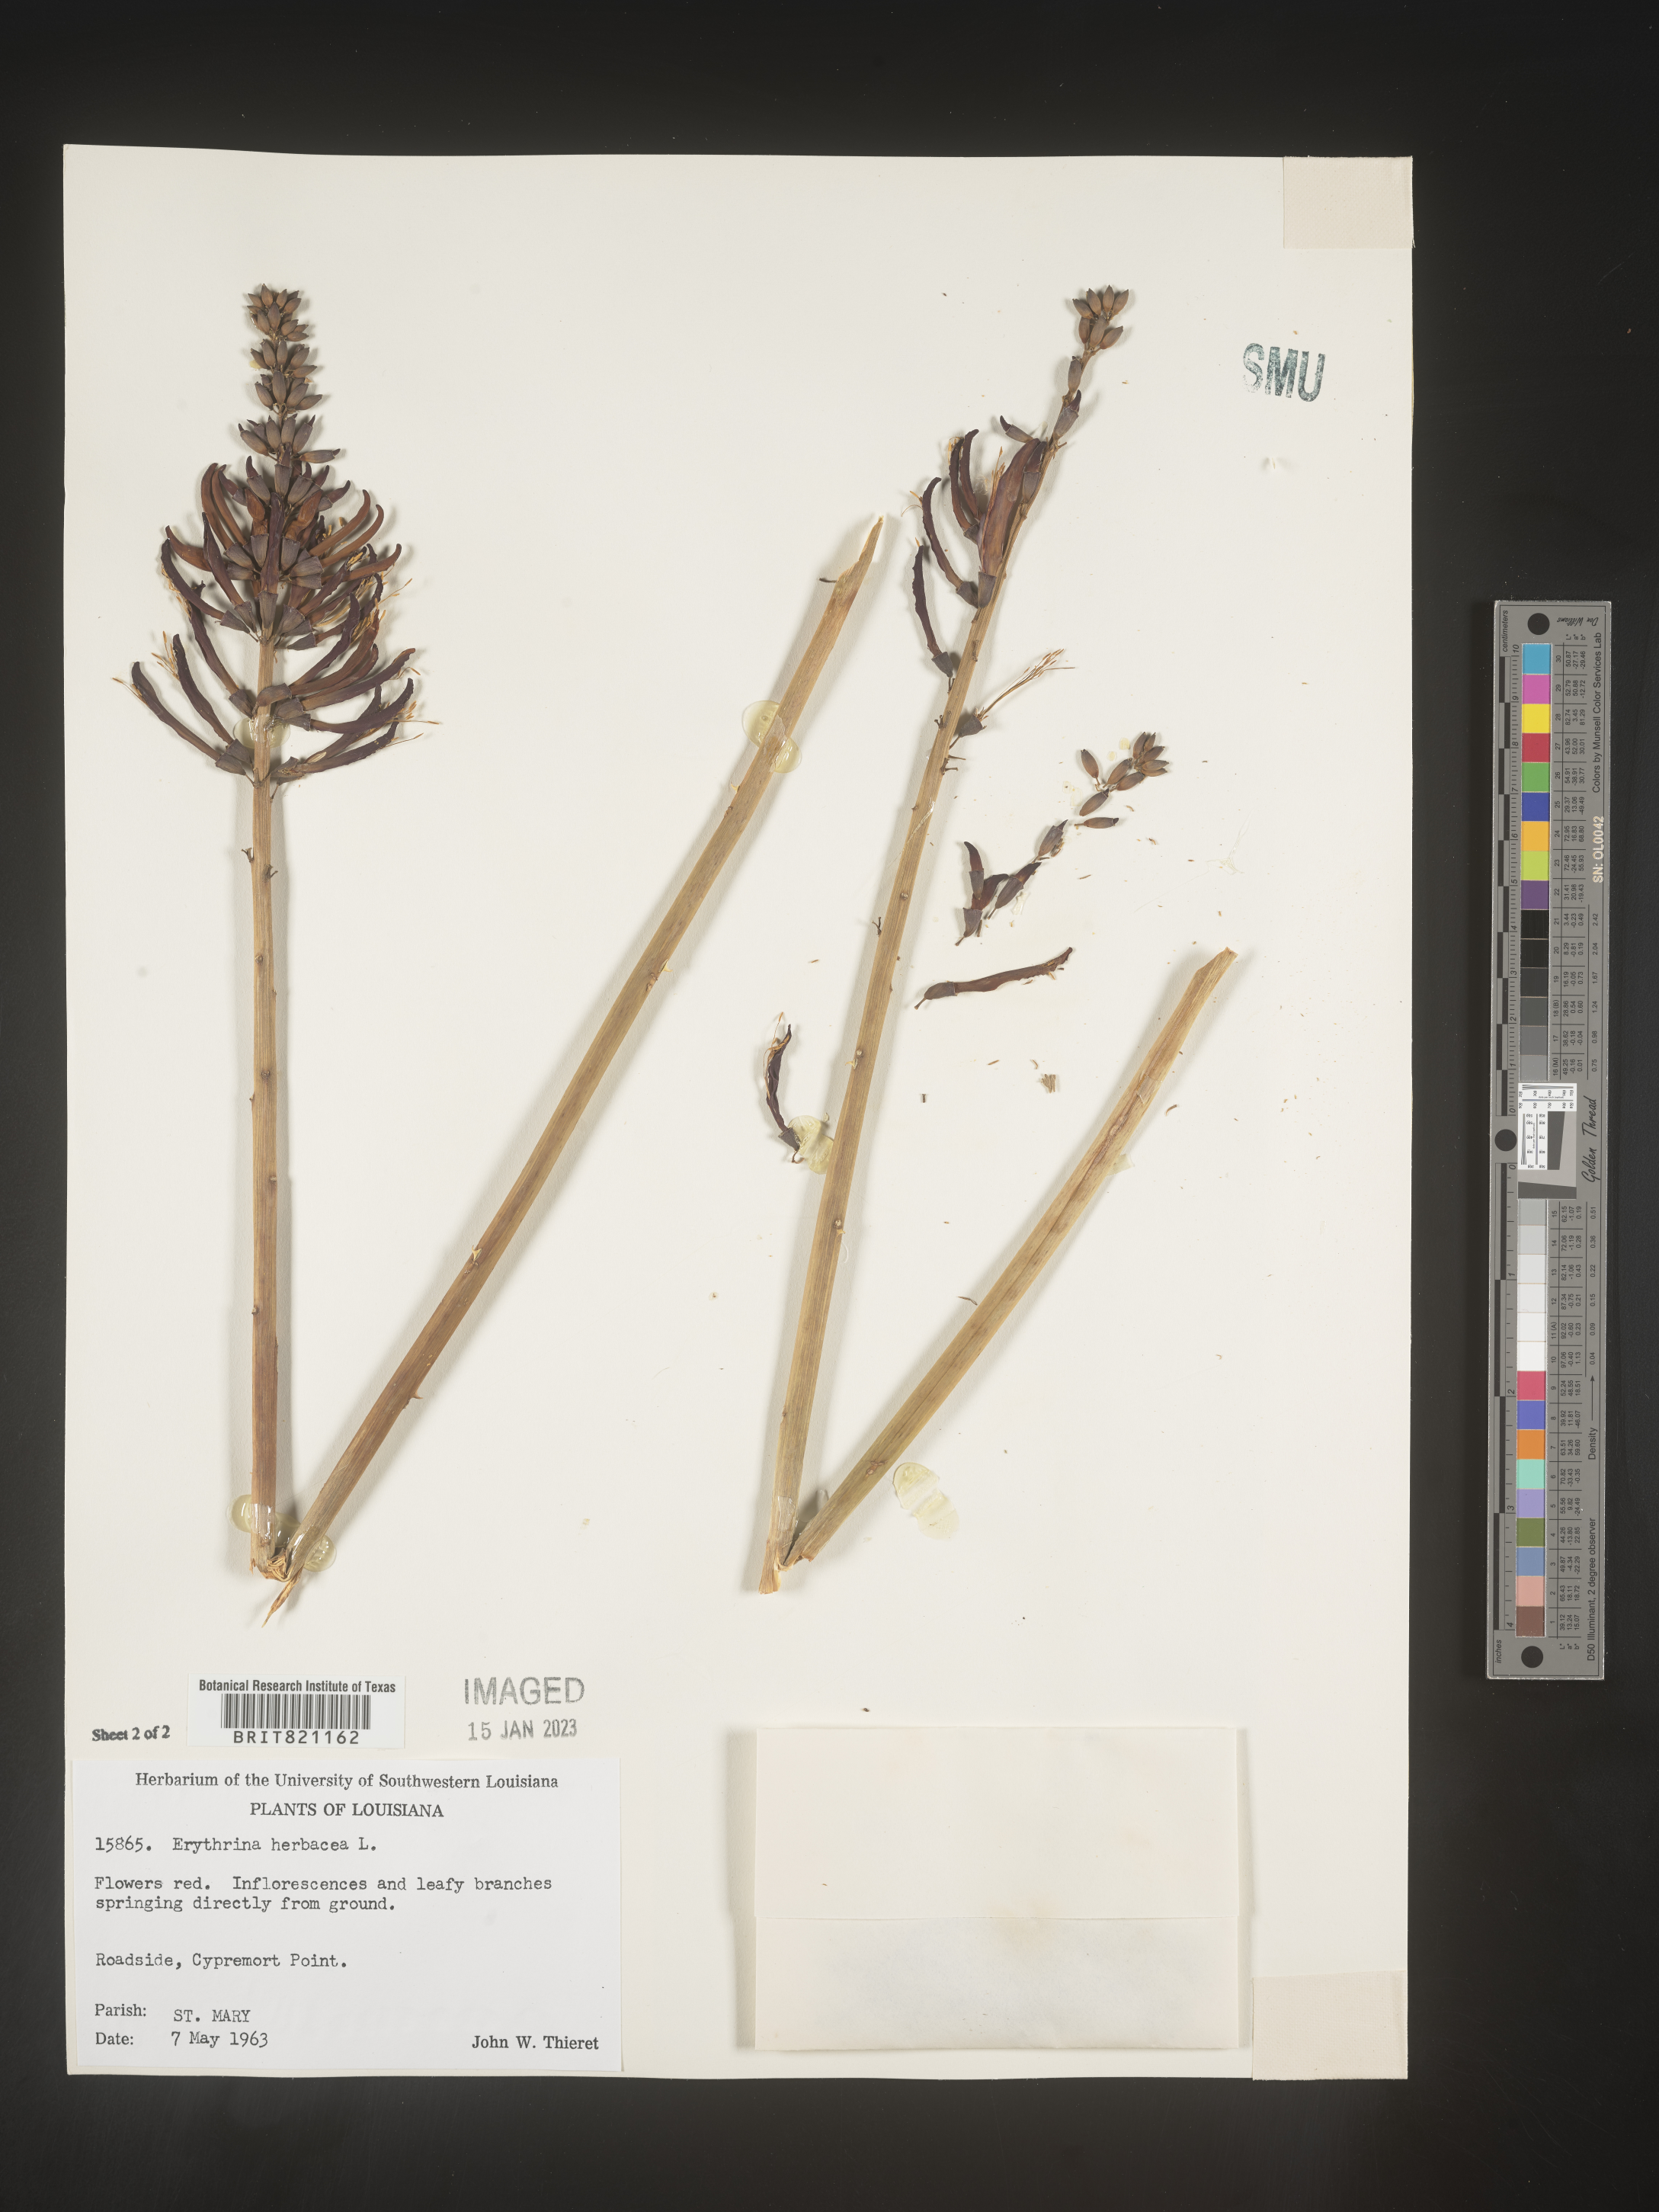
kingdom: Plantae
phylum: Tracheophyta
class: Magnoliopsida
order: Fabales
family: Fabaceae
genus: Erythrina
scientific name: Erythrina herbacea
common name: Coral-bean
